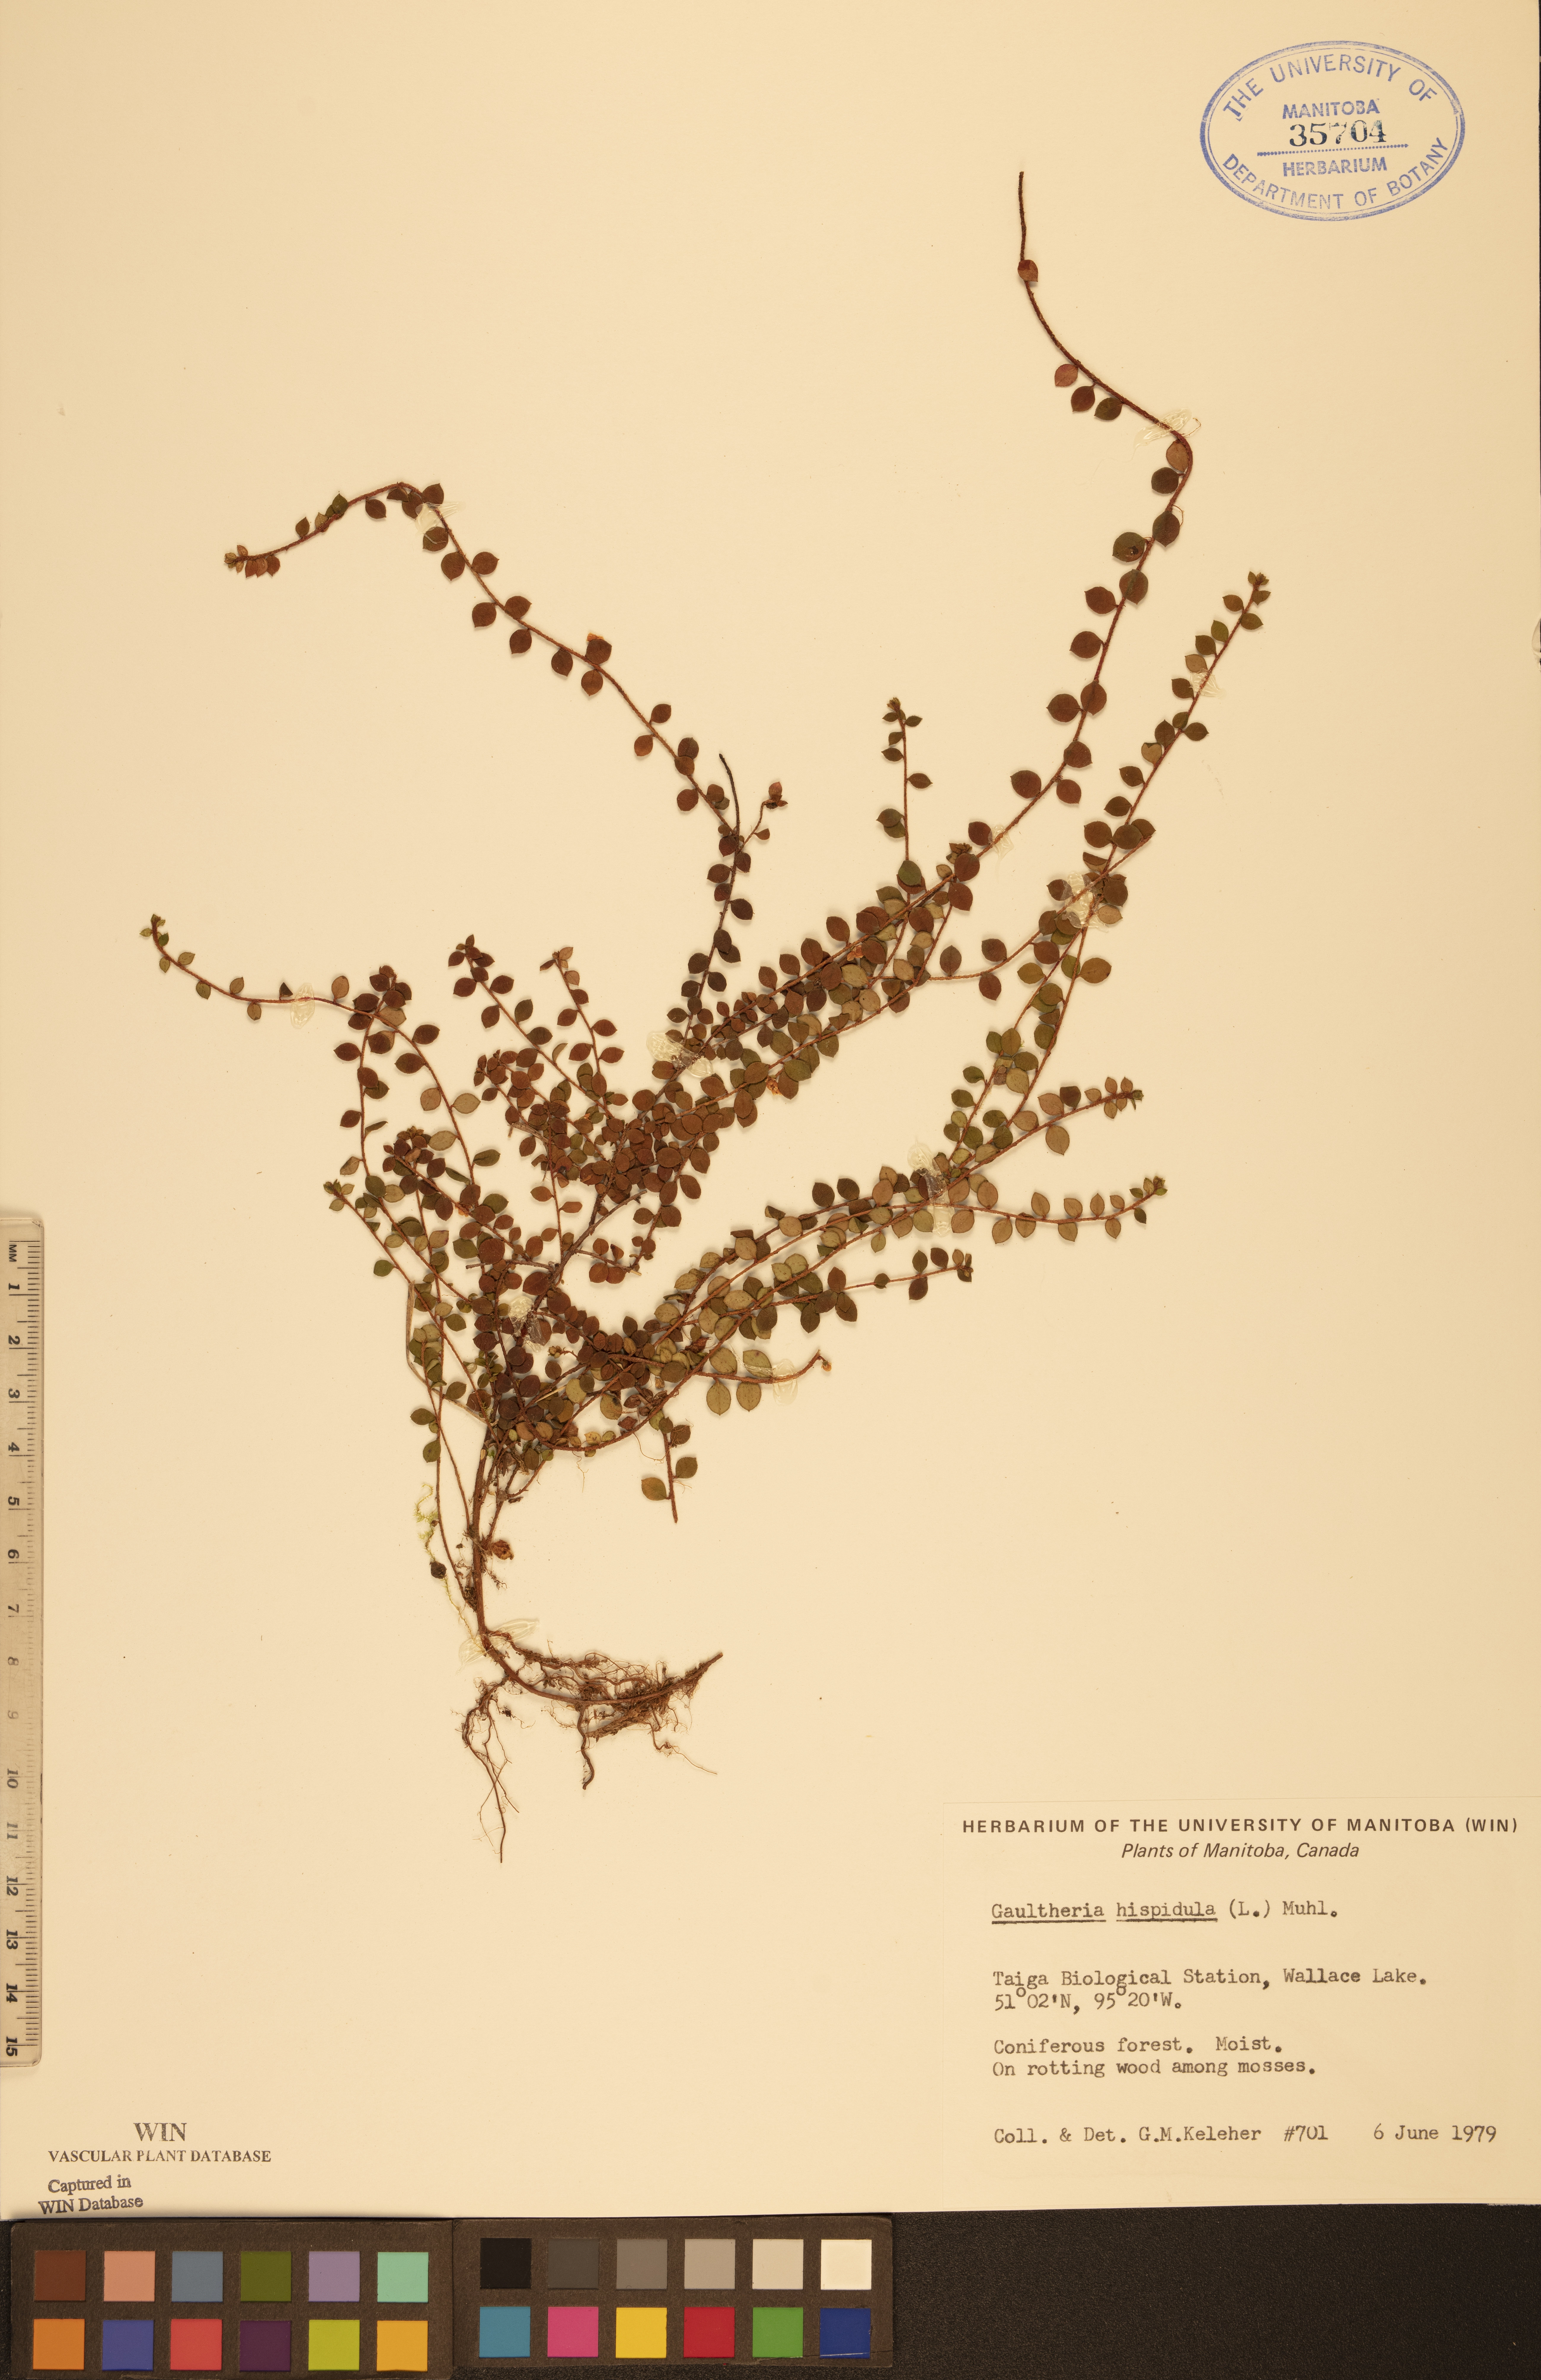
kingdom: Plantae
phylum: Tracheophyta
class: Magnoliopsida
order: Ericales
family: Ericaceae
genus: Gaultheria
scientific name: Gaultheria hispidula
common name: Cancer wintergreen
